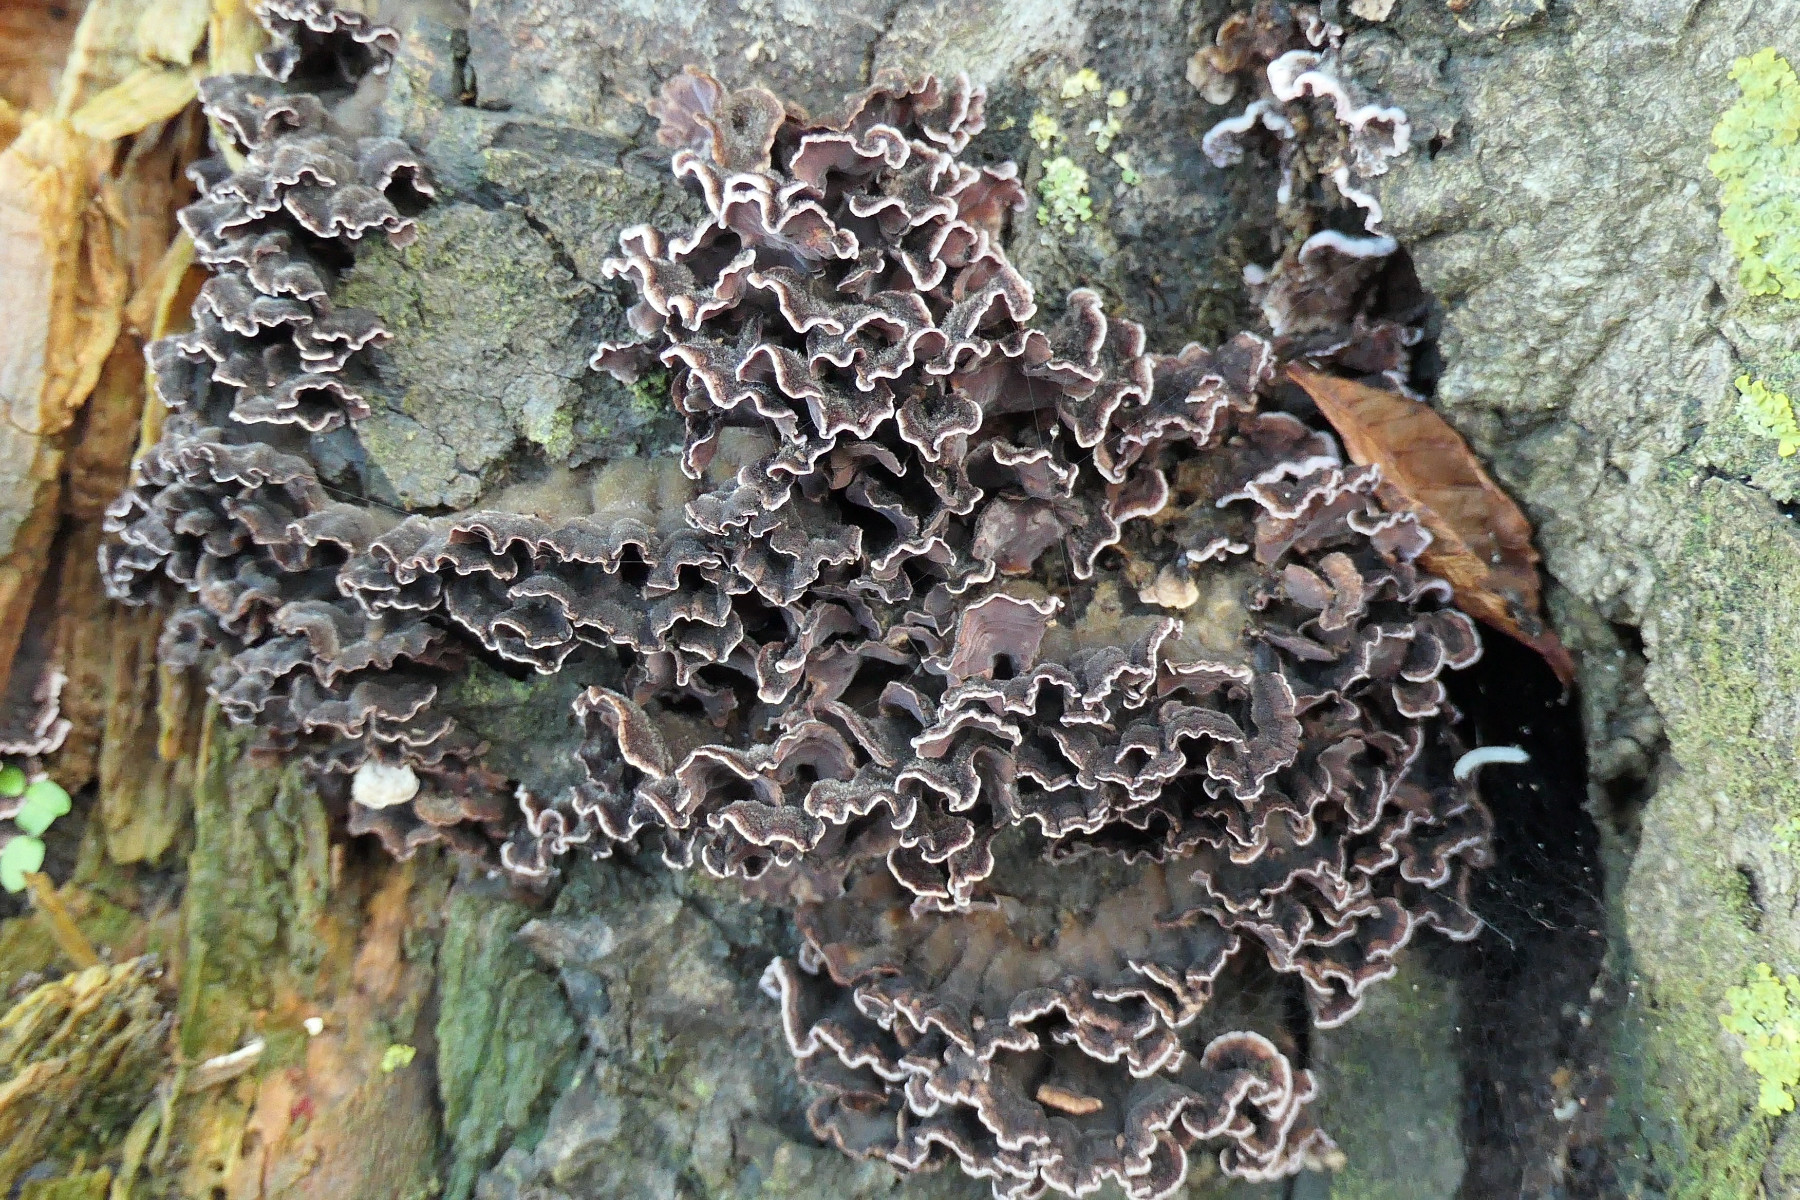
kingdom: Fungi
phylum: Basidiomycota
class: Agaricomycetes
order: Agaricales
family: Cyphellaceae
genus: Chondrostereum
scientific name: Chondrostereum purpureum
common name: purpurlædersvamp
